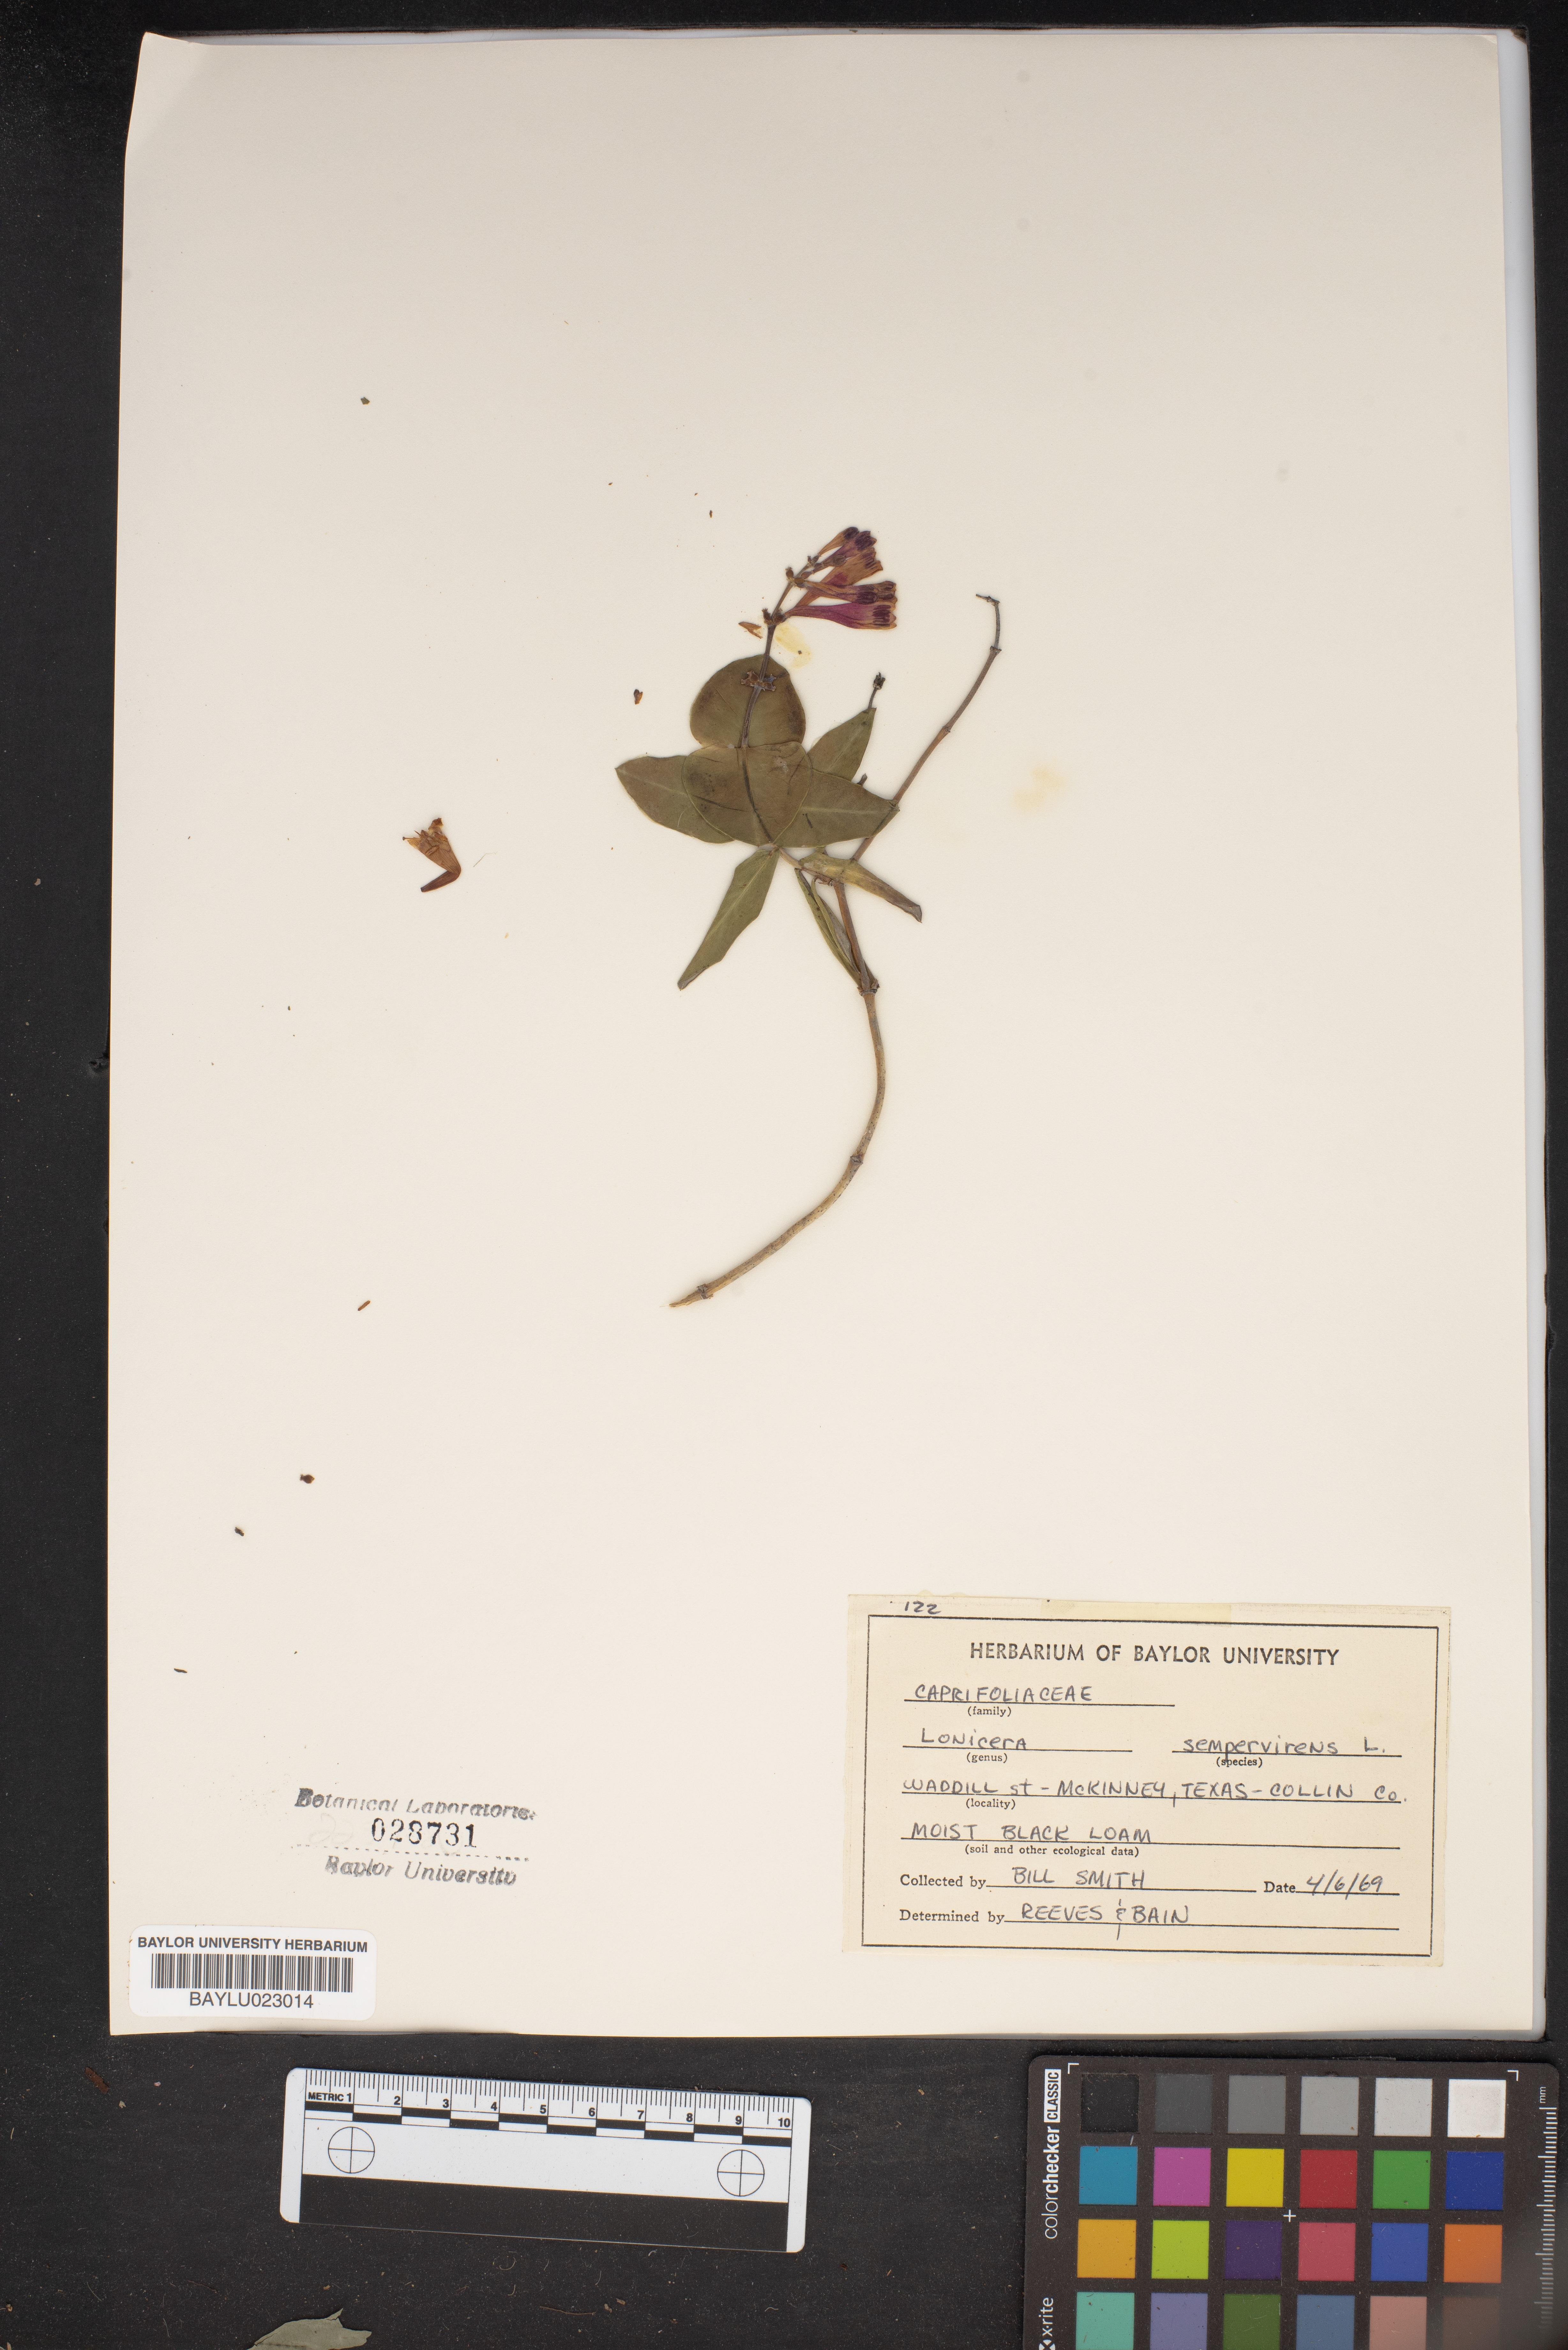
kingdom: Plantae
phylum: Tracheophyta
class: Magnoliopsida
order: Dipsacales
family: Caprifoliaceae
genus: Lonicera
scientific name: Lonicera sempervirens
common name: Coral honeysuckle
